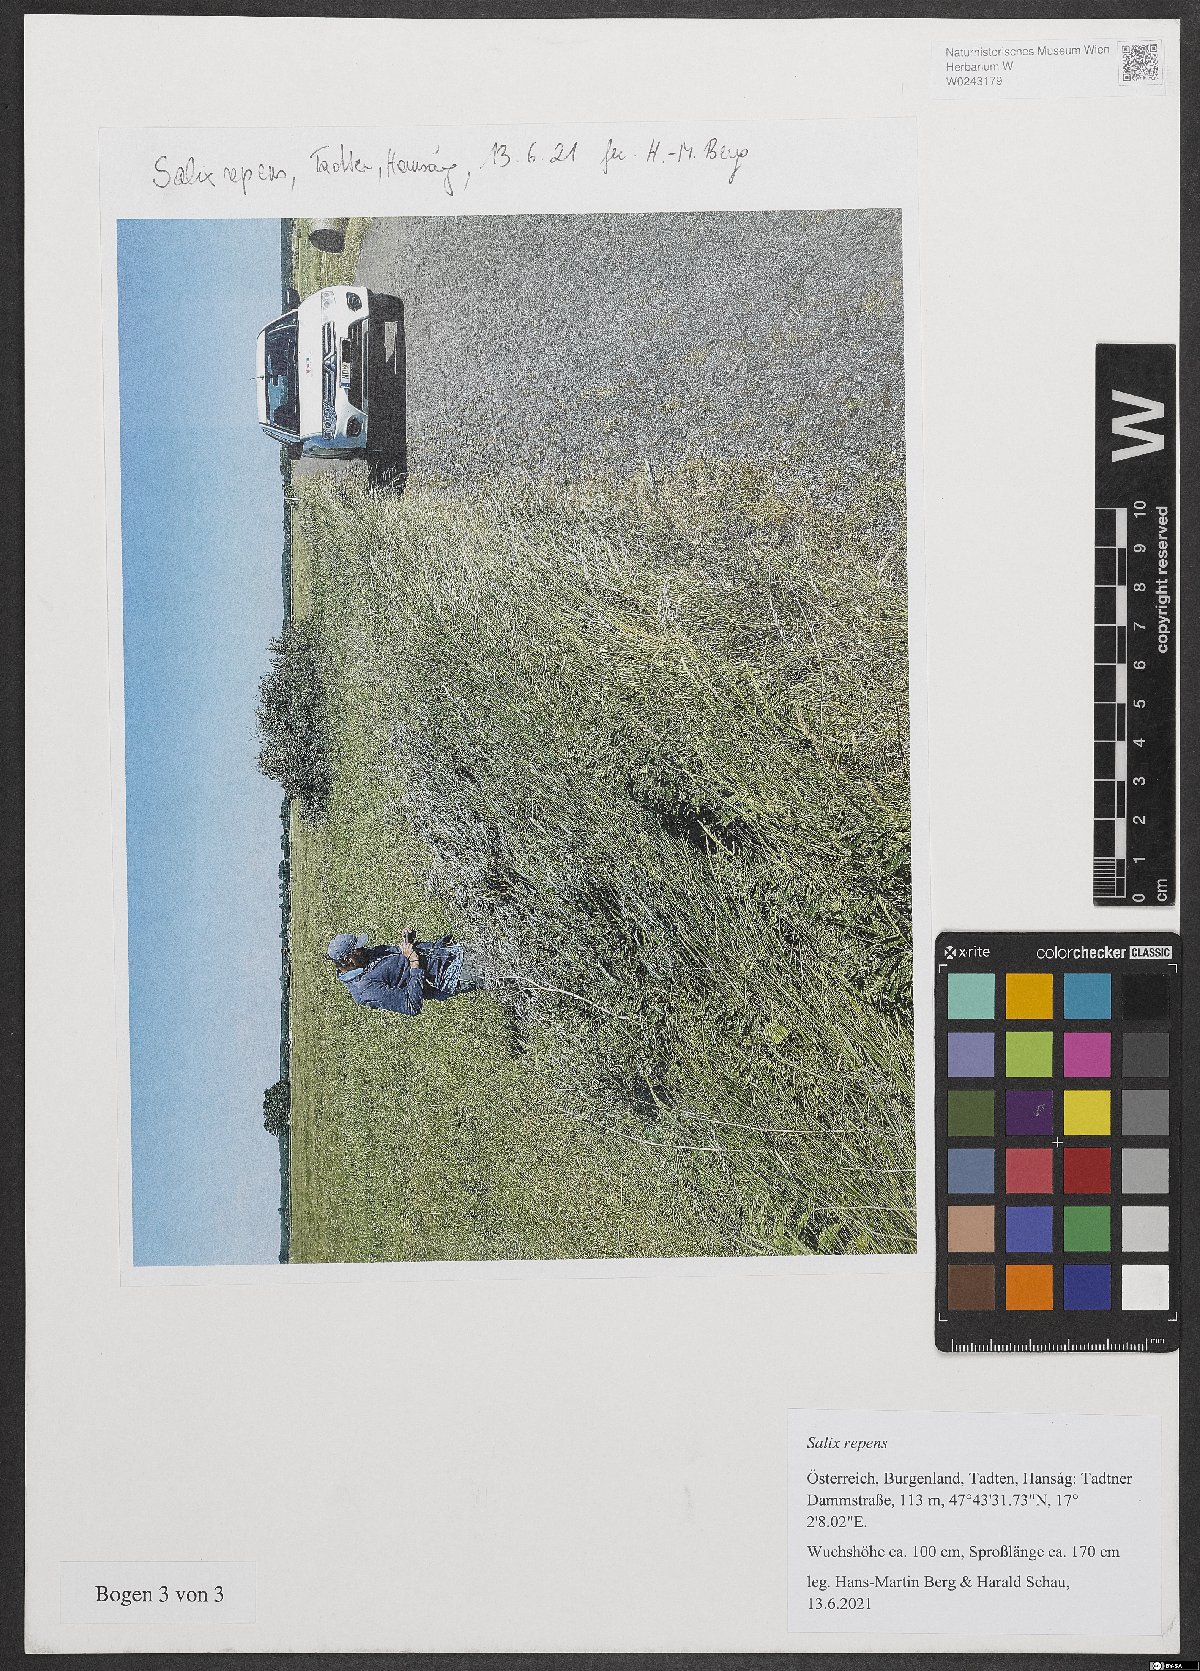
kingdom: Plantae
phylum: Tracheophyta
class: Magnoliopsida
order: Malpighiales
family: Salicaceae
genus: Salix
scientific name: Salix repens
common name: Creeping willow
